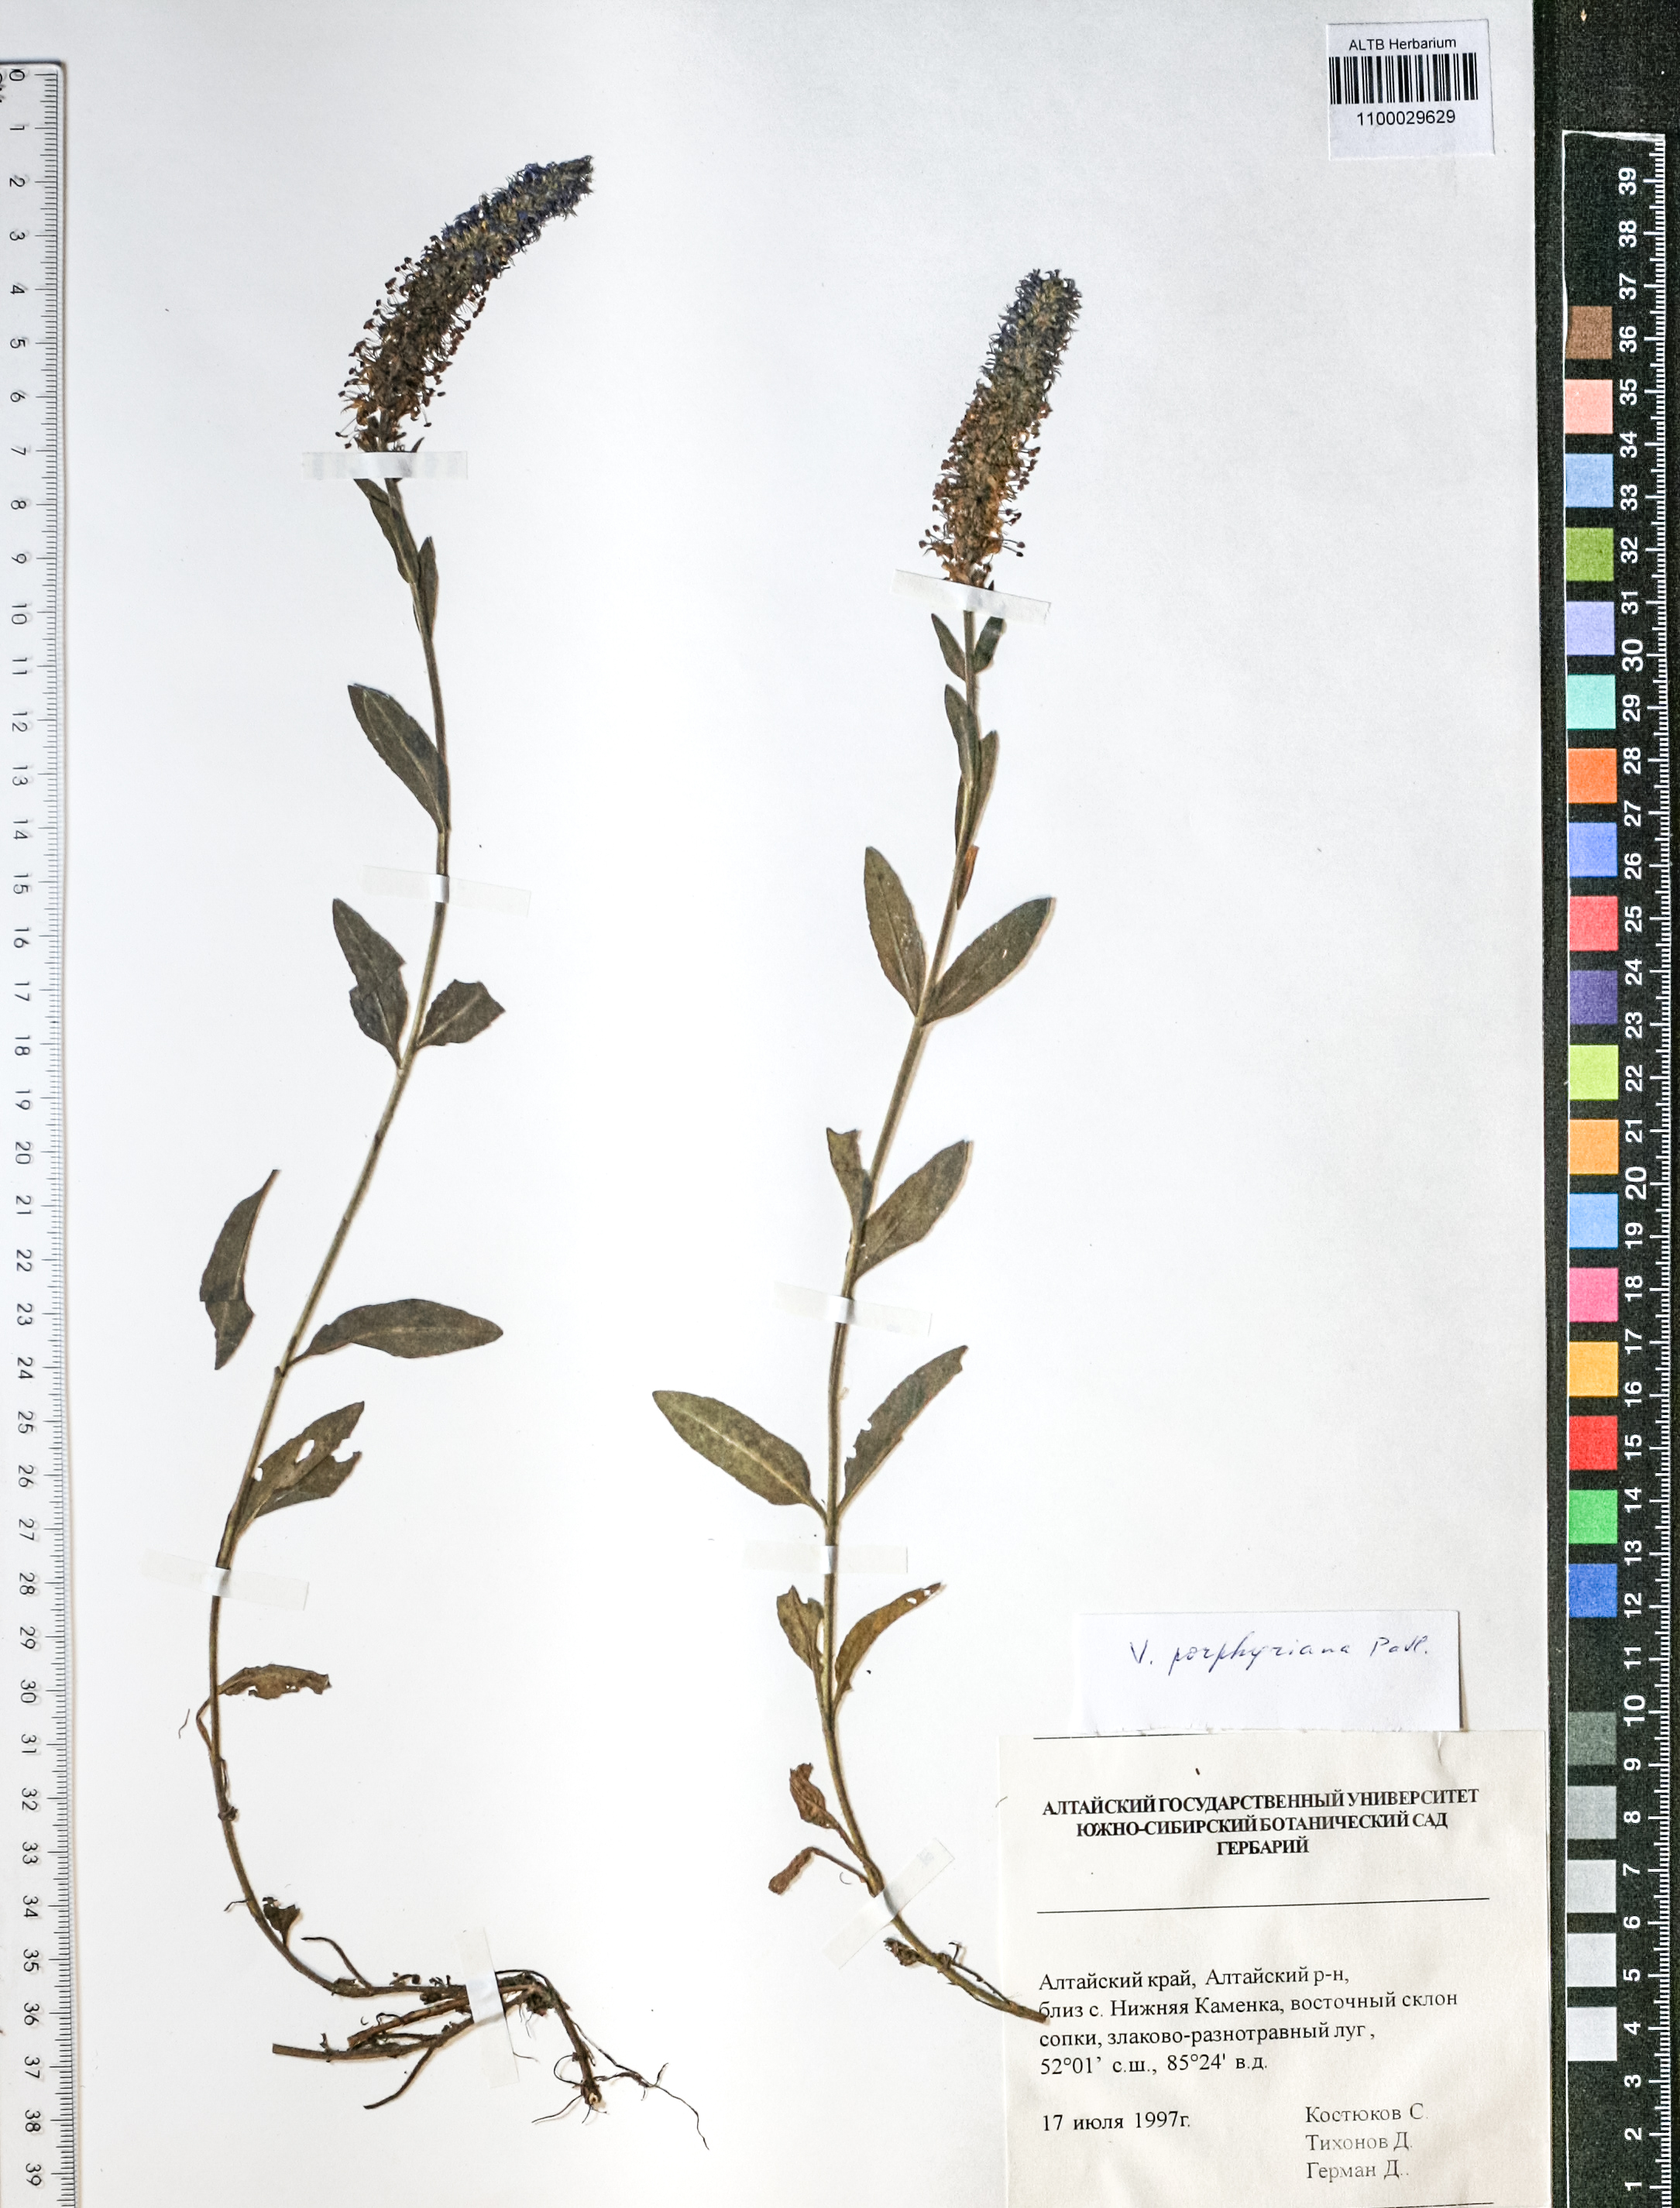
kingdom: Plantae
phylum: Tracheophyta
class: Magnoliopsida
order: Lamiales
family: Plantaginaceae
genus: Veronica
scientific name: Veronica porphyriana
